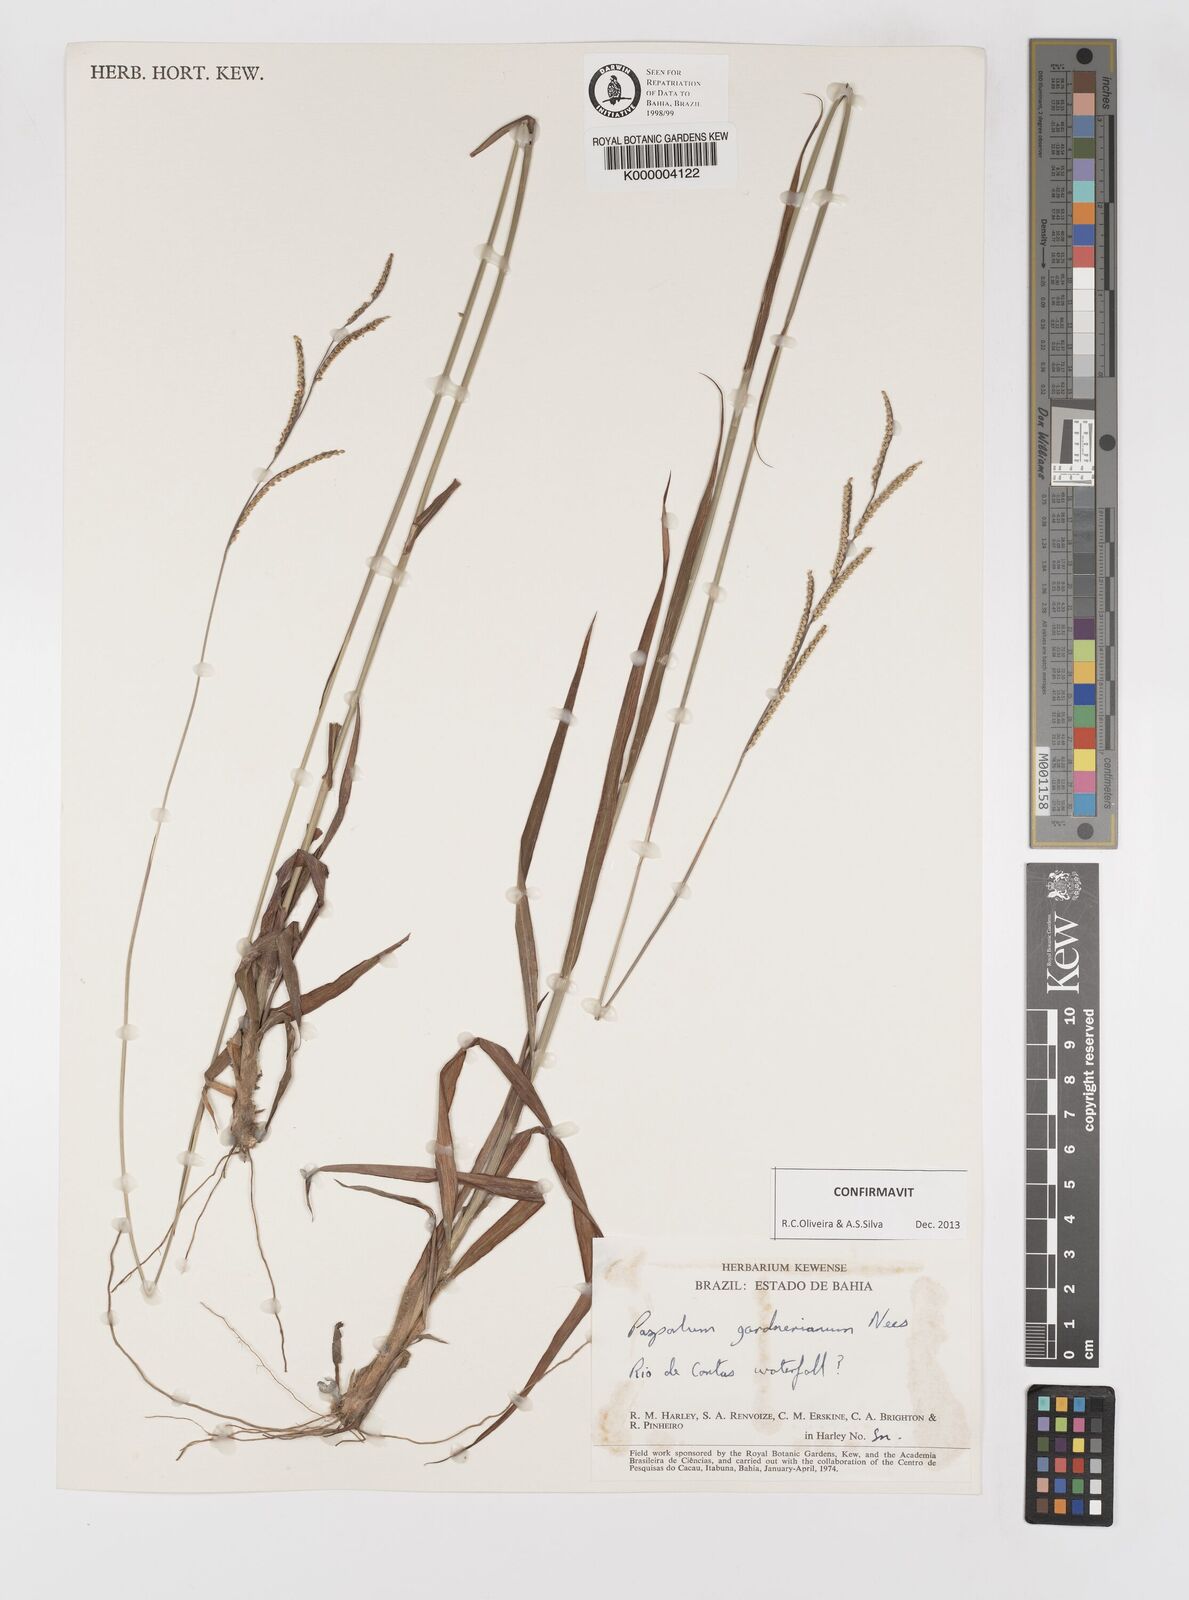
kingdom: Plantae
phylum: Tracheophyta
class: Liliopsida
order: Poales
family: Poaceae
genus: Paspalum
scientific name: Paspalum gardnerianum
